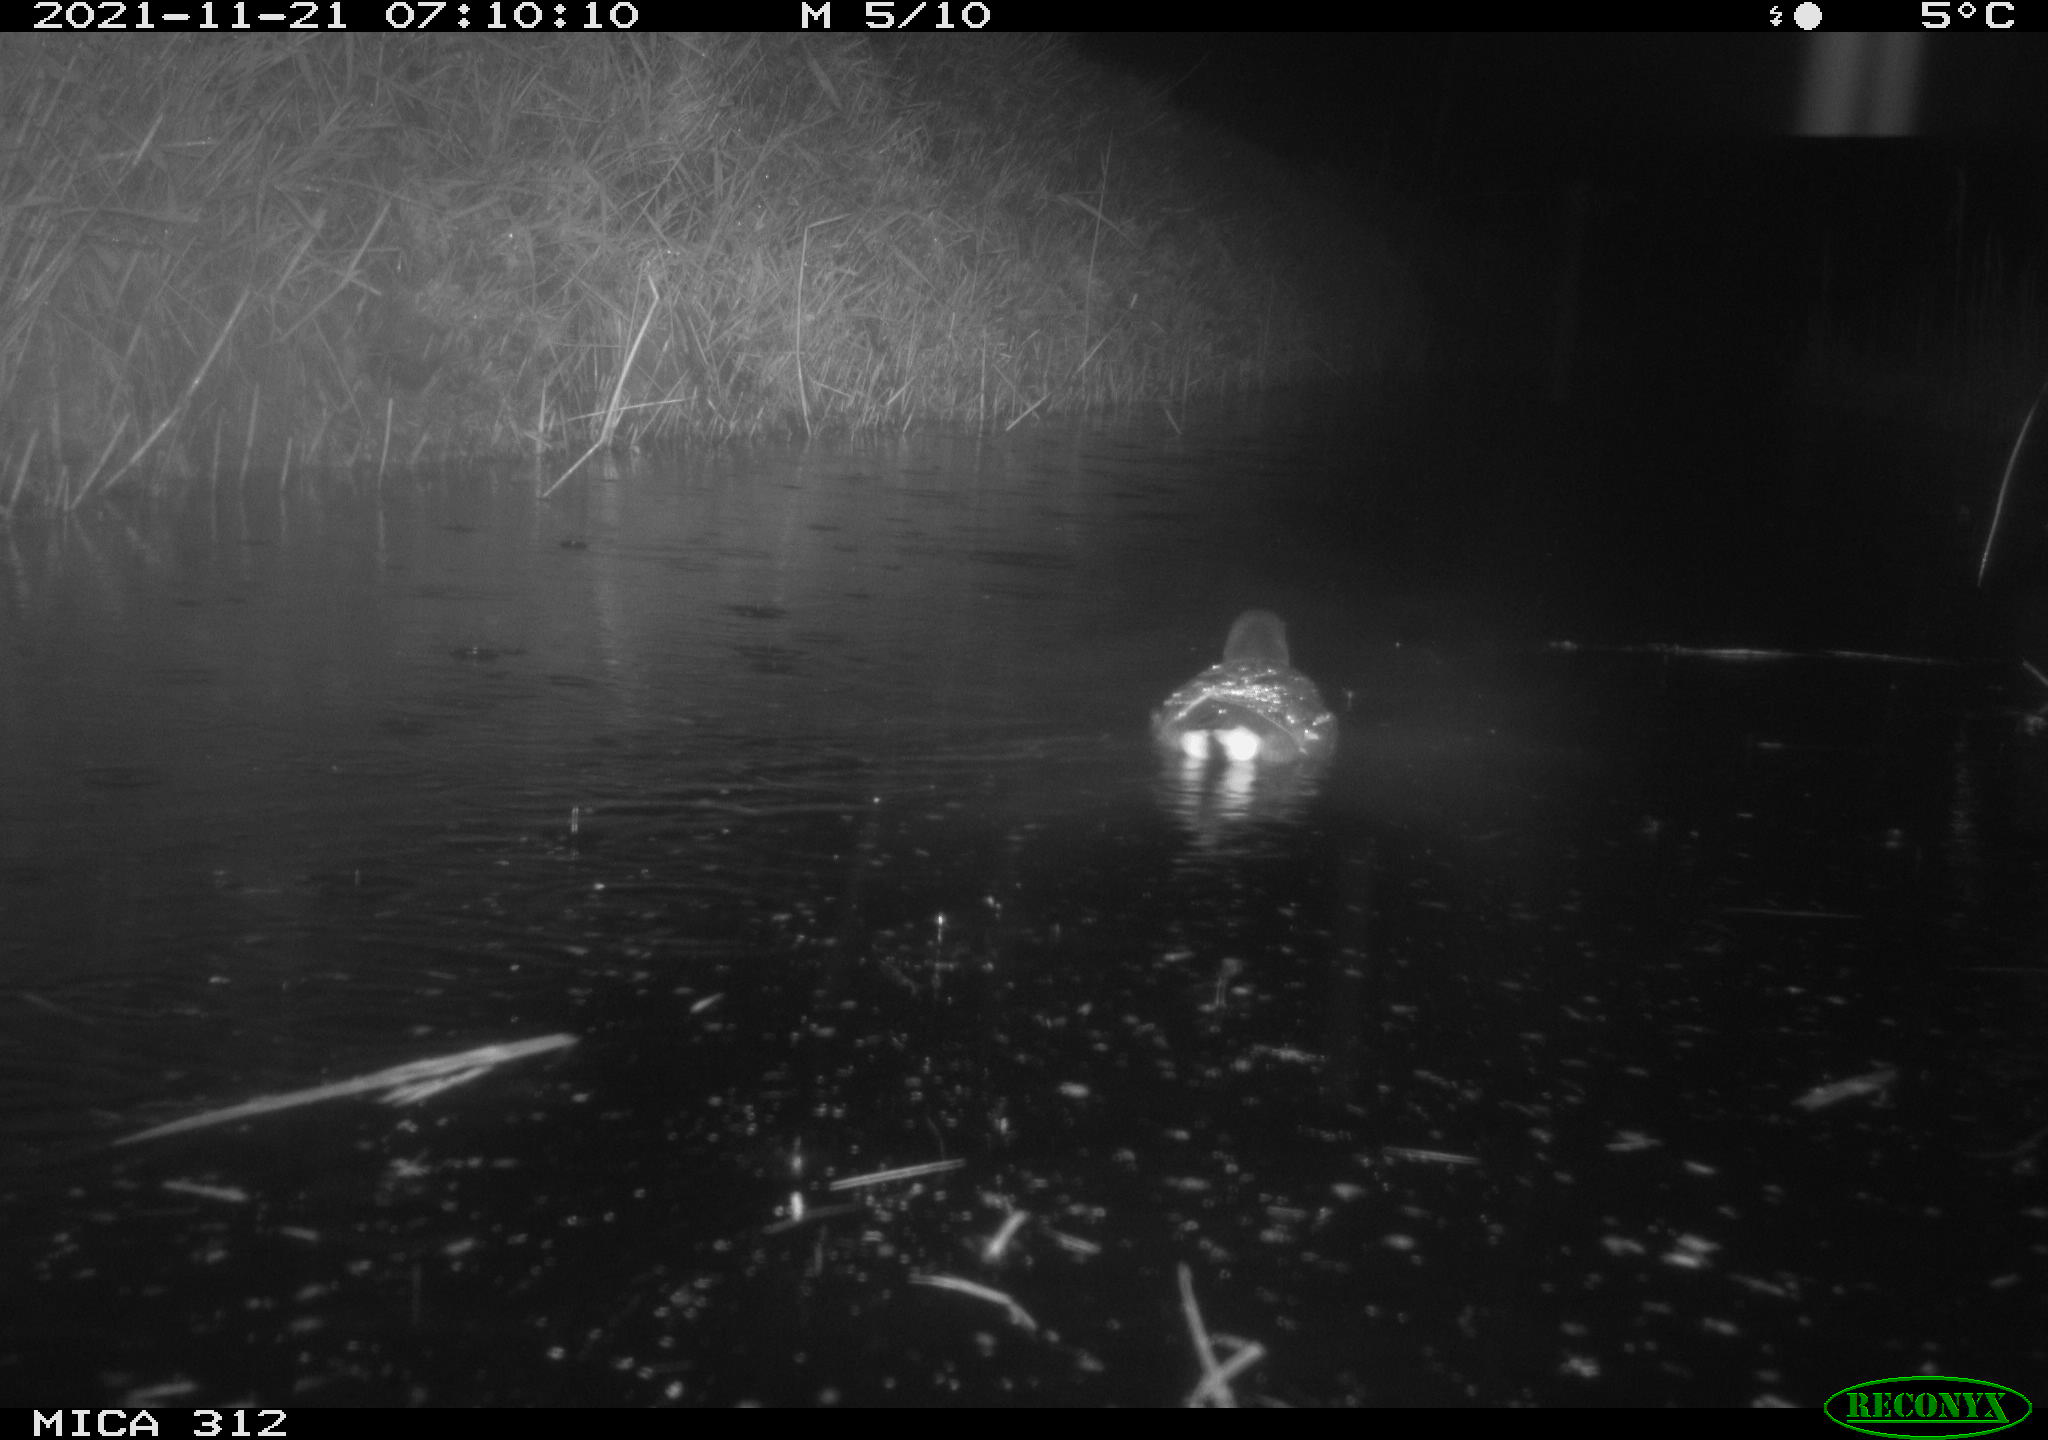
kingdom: Animalia
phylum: Chordata
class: Aves
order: Gruiformes
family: Rallidae
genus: Gallinula
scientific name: Gallinula chloropus
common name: Common moorhen
